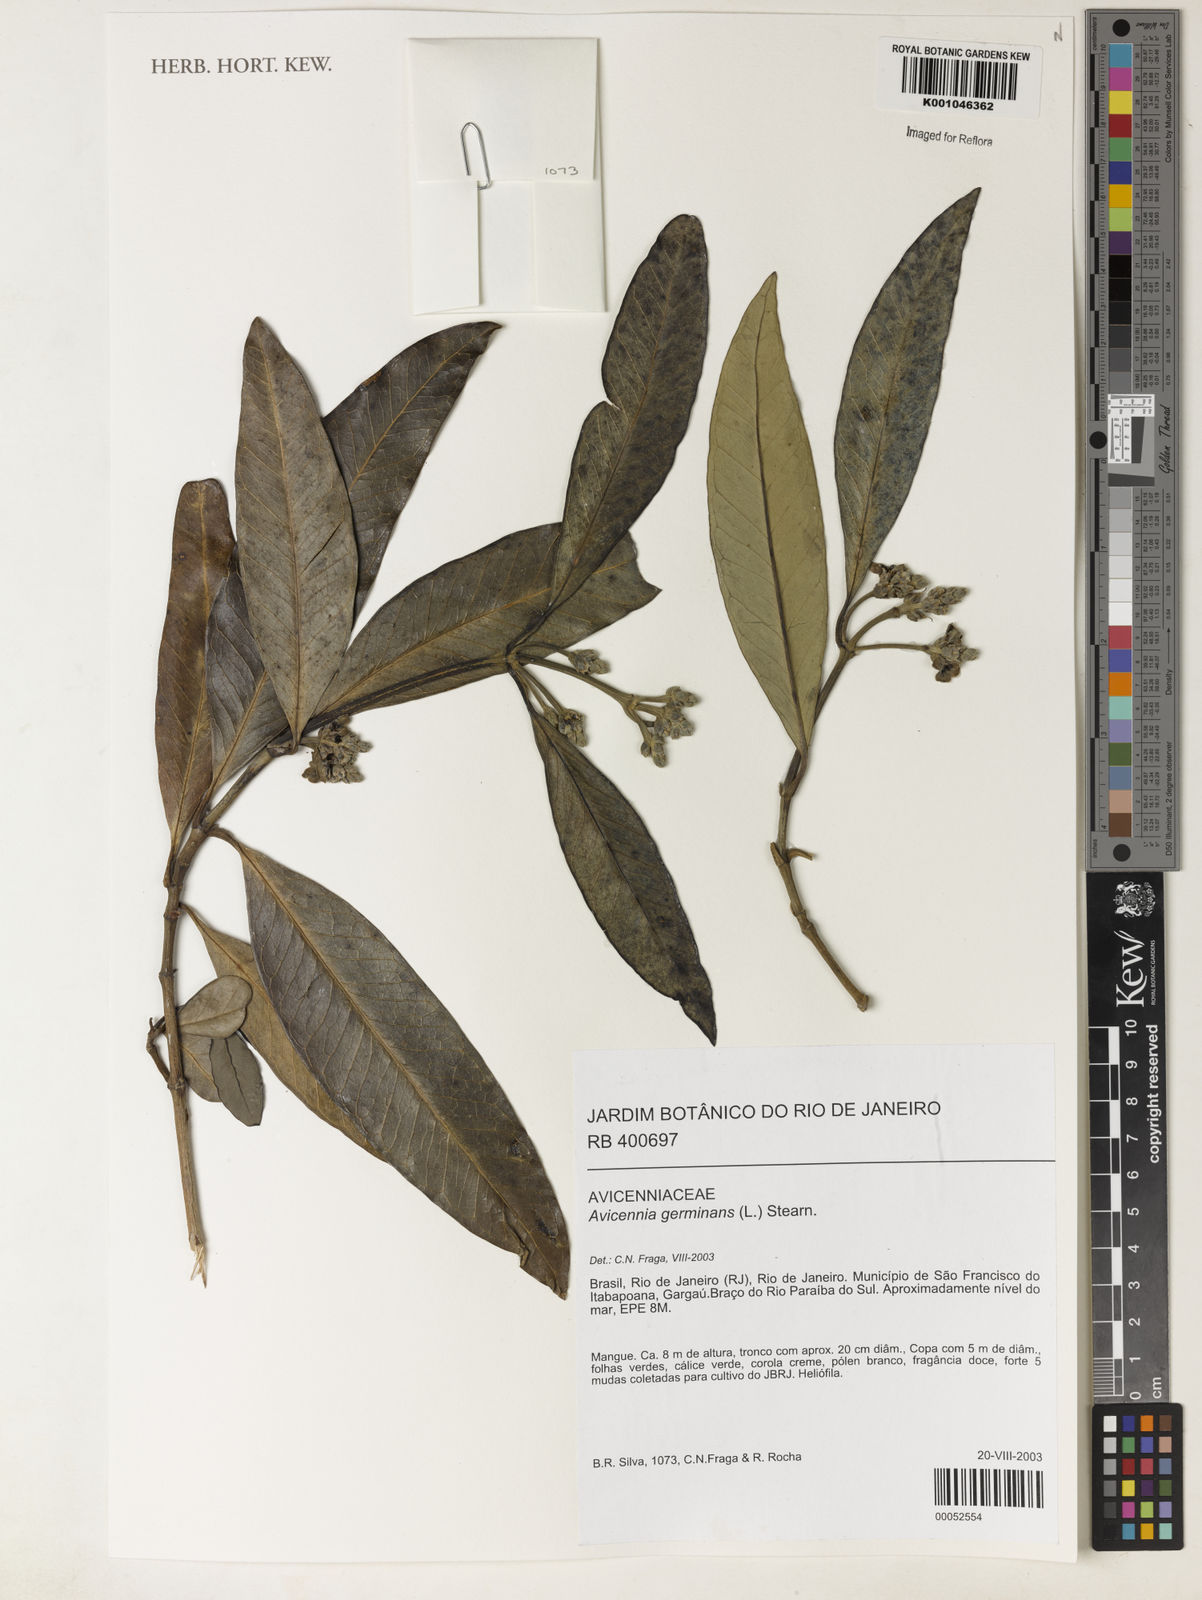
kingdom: Plantae
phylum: Tracheophyta
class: Magnoliopsida
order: Lamiales
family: Acanthaceae
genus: Avicennia
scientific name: Avicennia germinans
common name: Black mangrove
